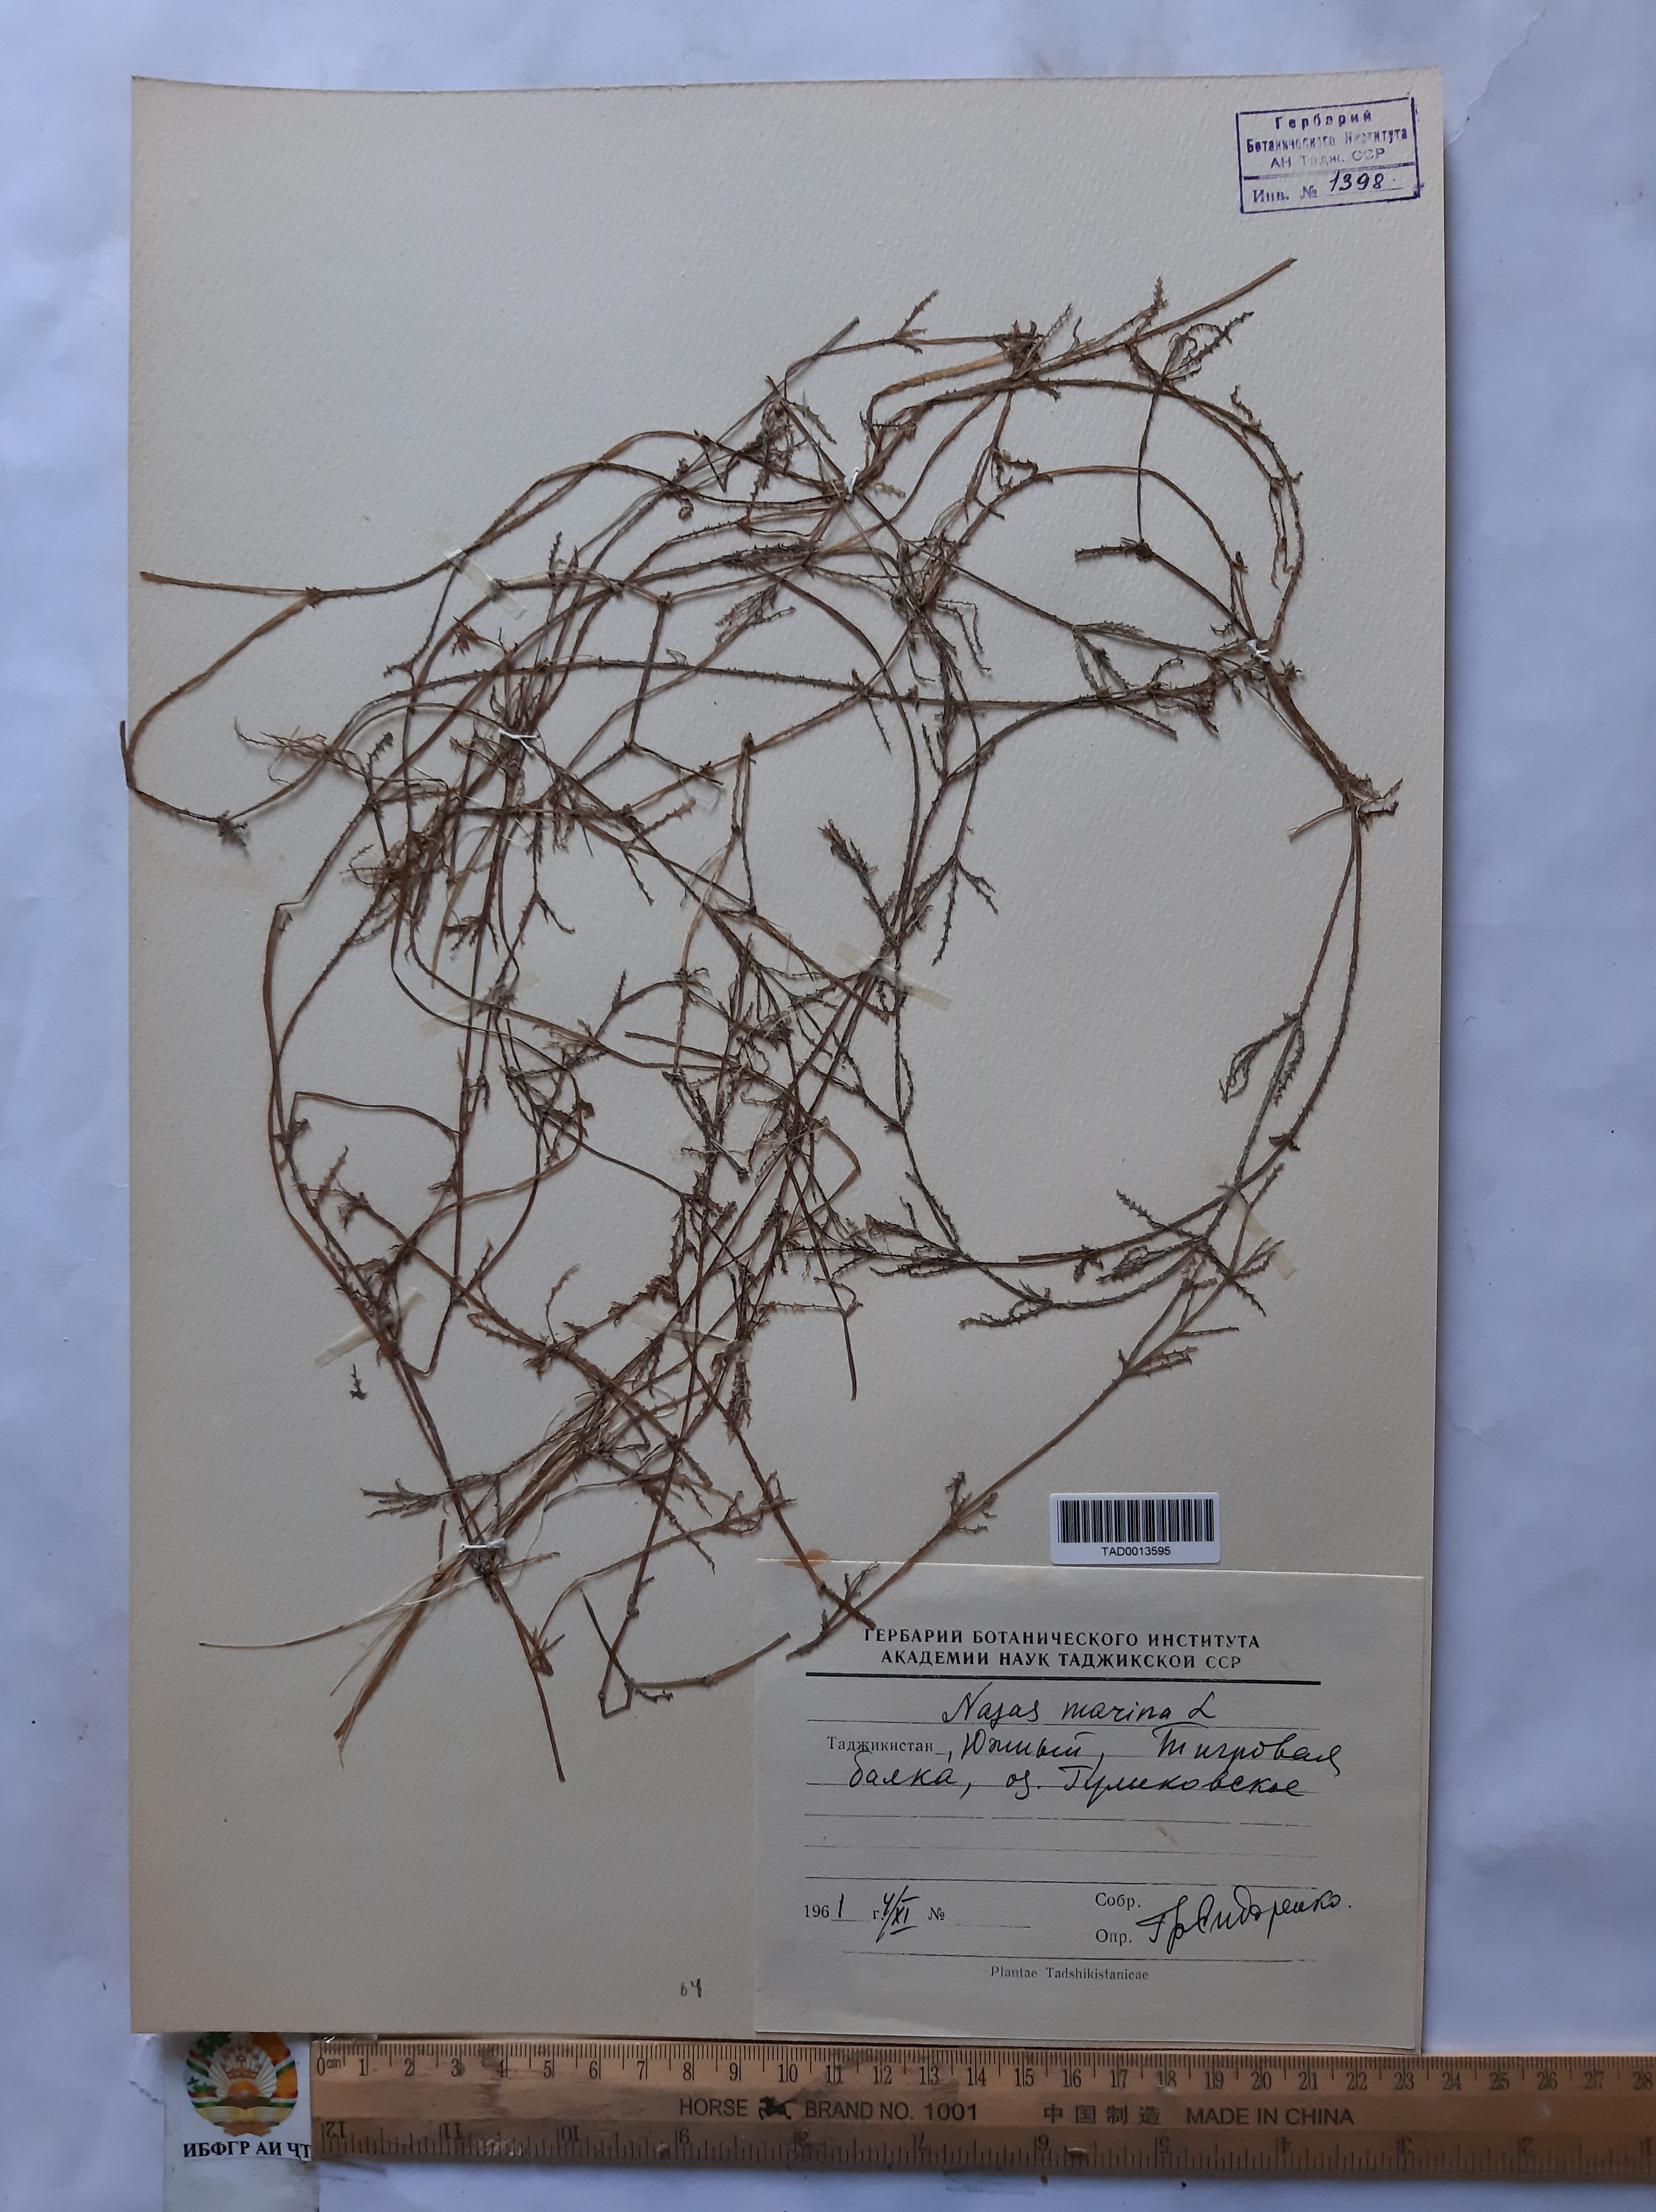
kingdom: Plantae
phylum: Tracheophyta
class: Liliopsida
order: Alismatales
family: Hydrocharitaceae
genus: Najas
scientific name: Najas marina
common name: Holly-leaved naiad
